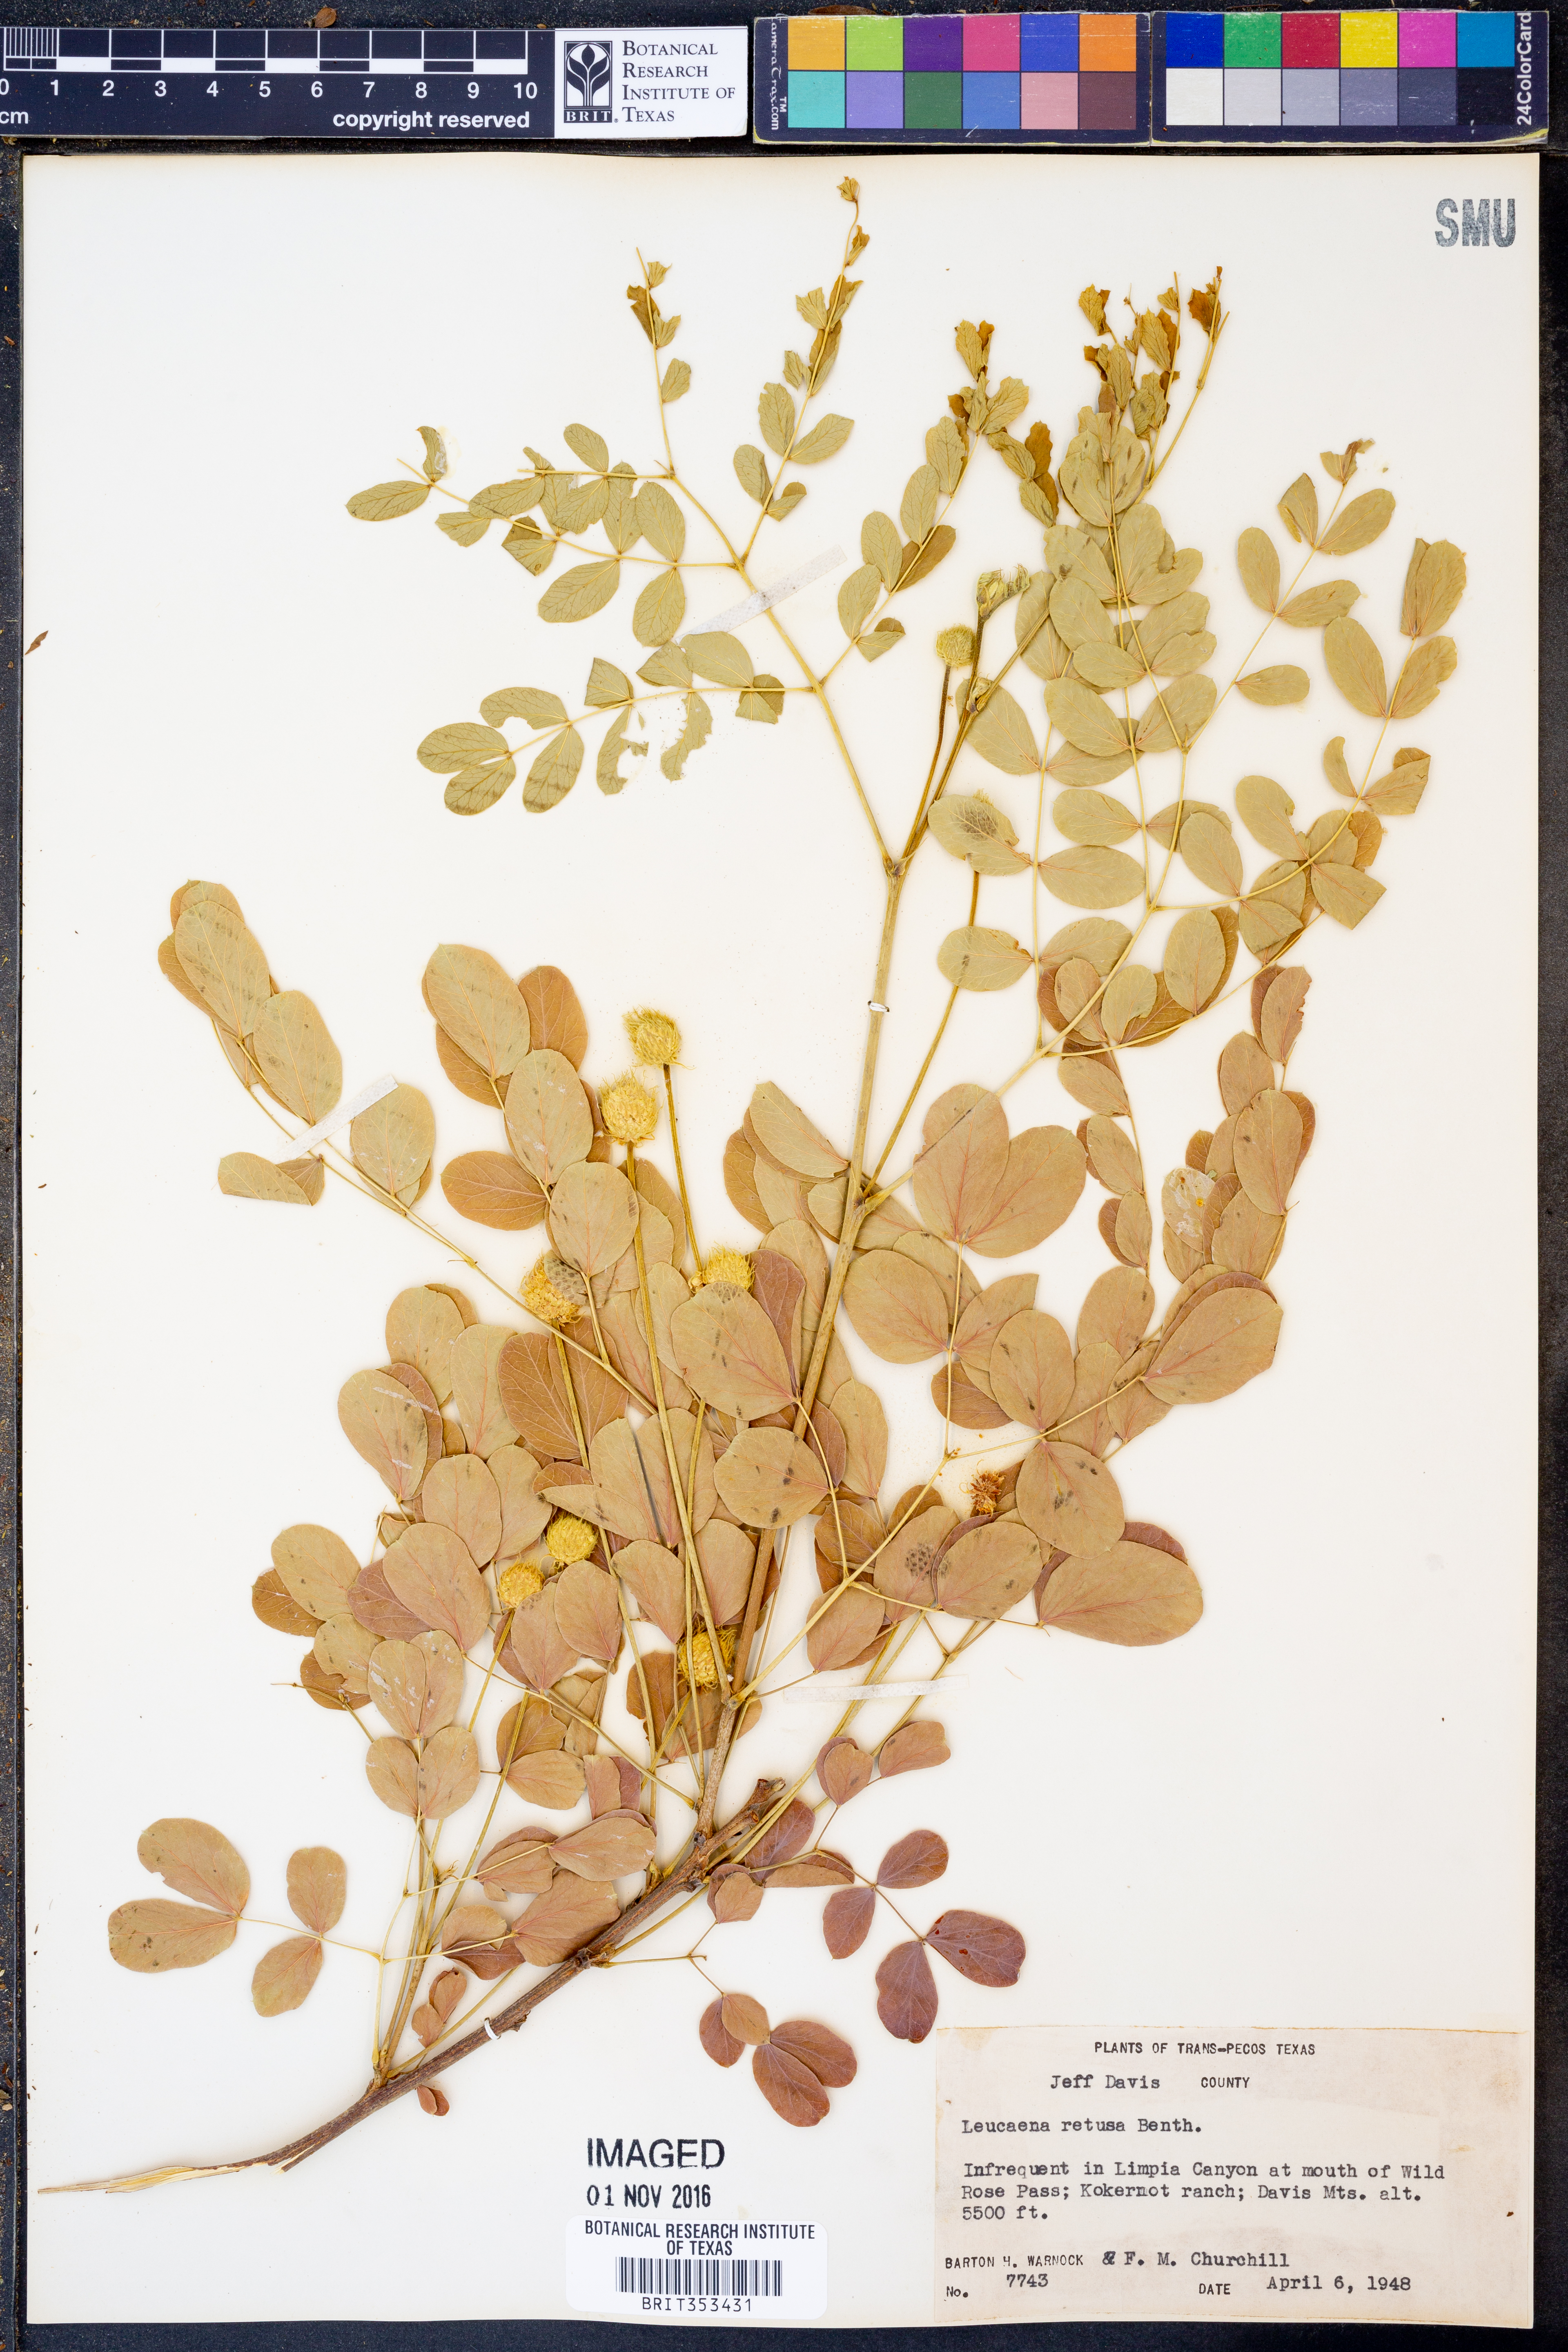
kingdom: Plantae
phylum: Tracheophyta
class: Magnoliopsida
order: Fabales
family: Fabaceae
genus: Leucaena
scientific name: Leucaena retusa
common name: Littleleaf leadtree
